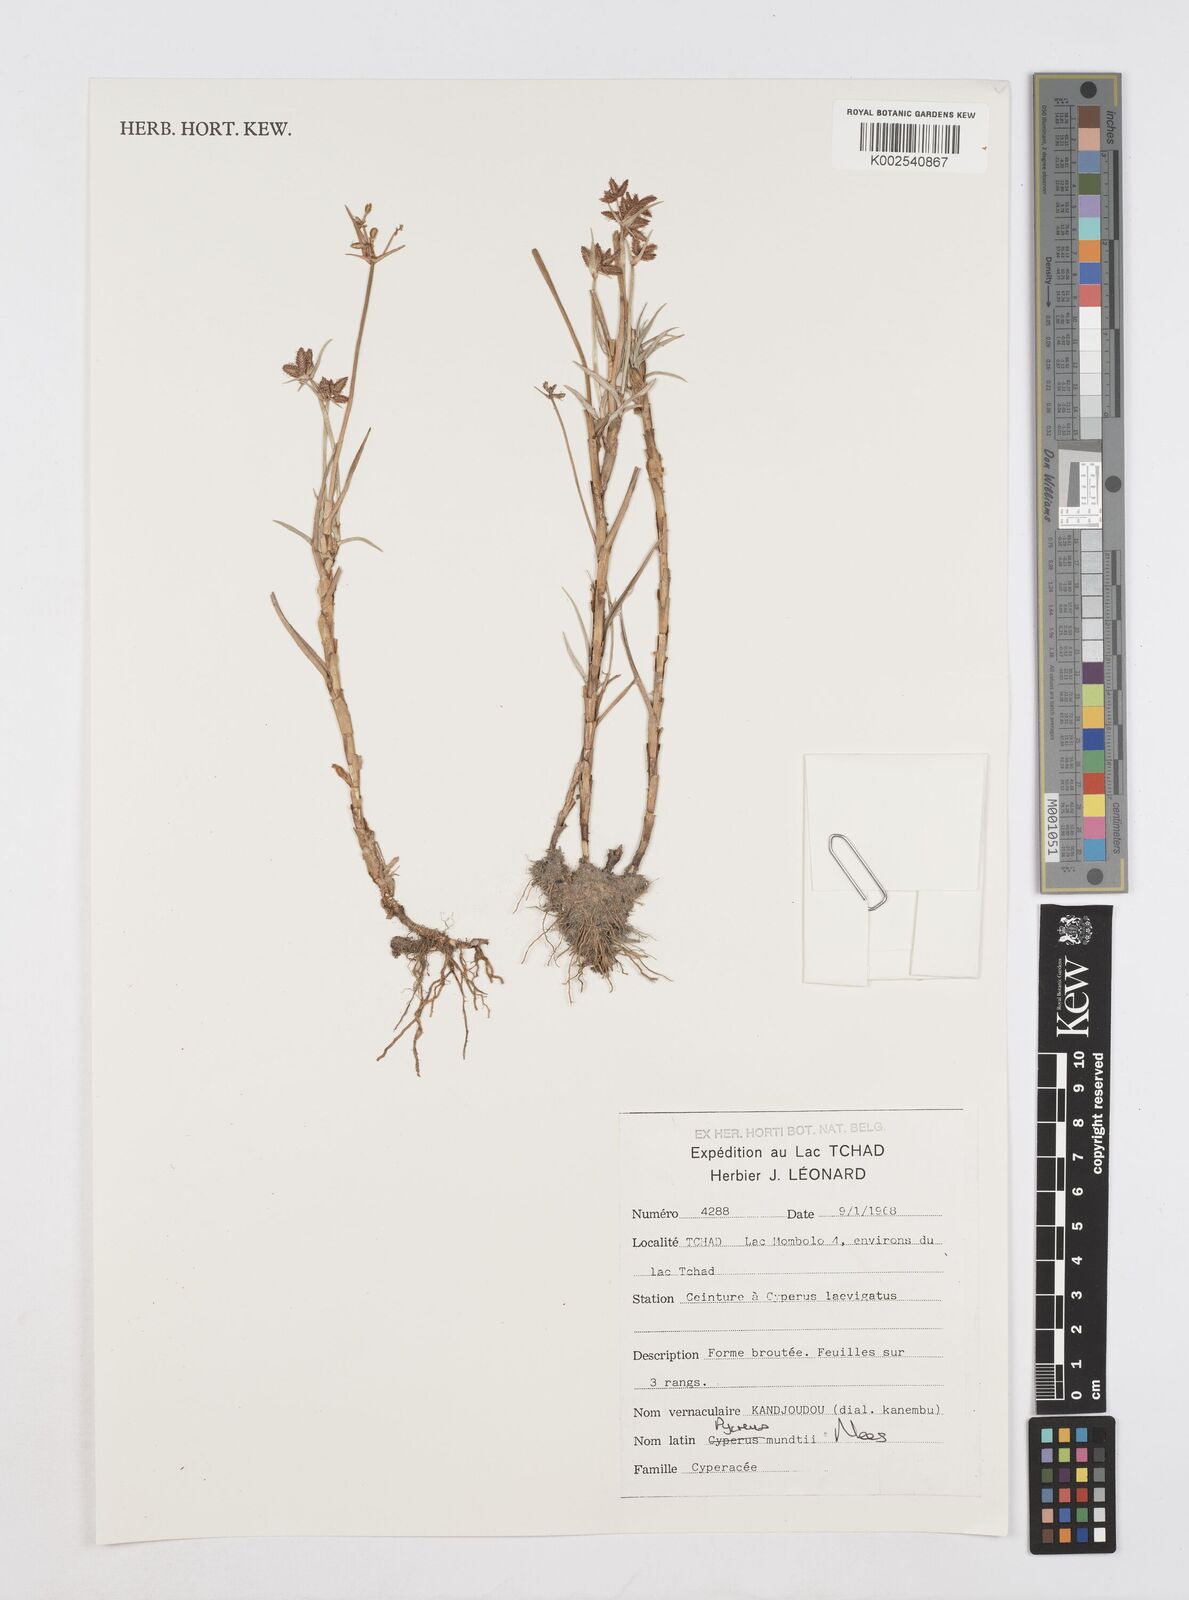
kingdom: Plantae
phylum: Tracheophyta
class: Liliopsida
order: Poales
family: Cyperaceae
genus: Cyperus
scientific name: Cyperus mundii
